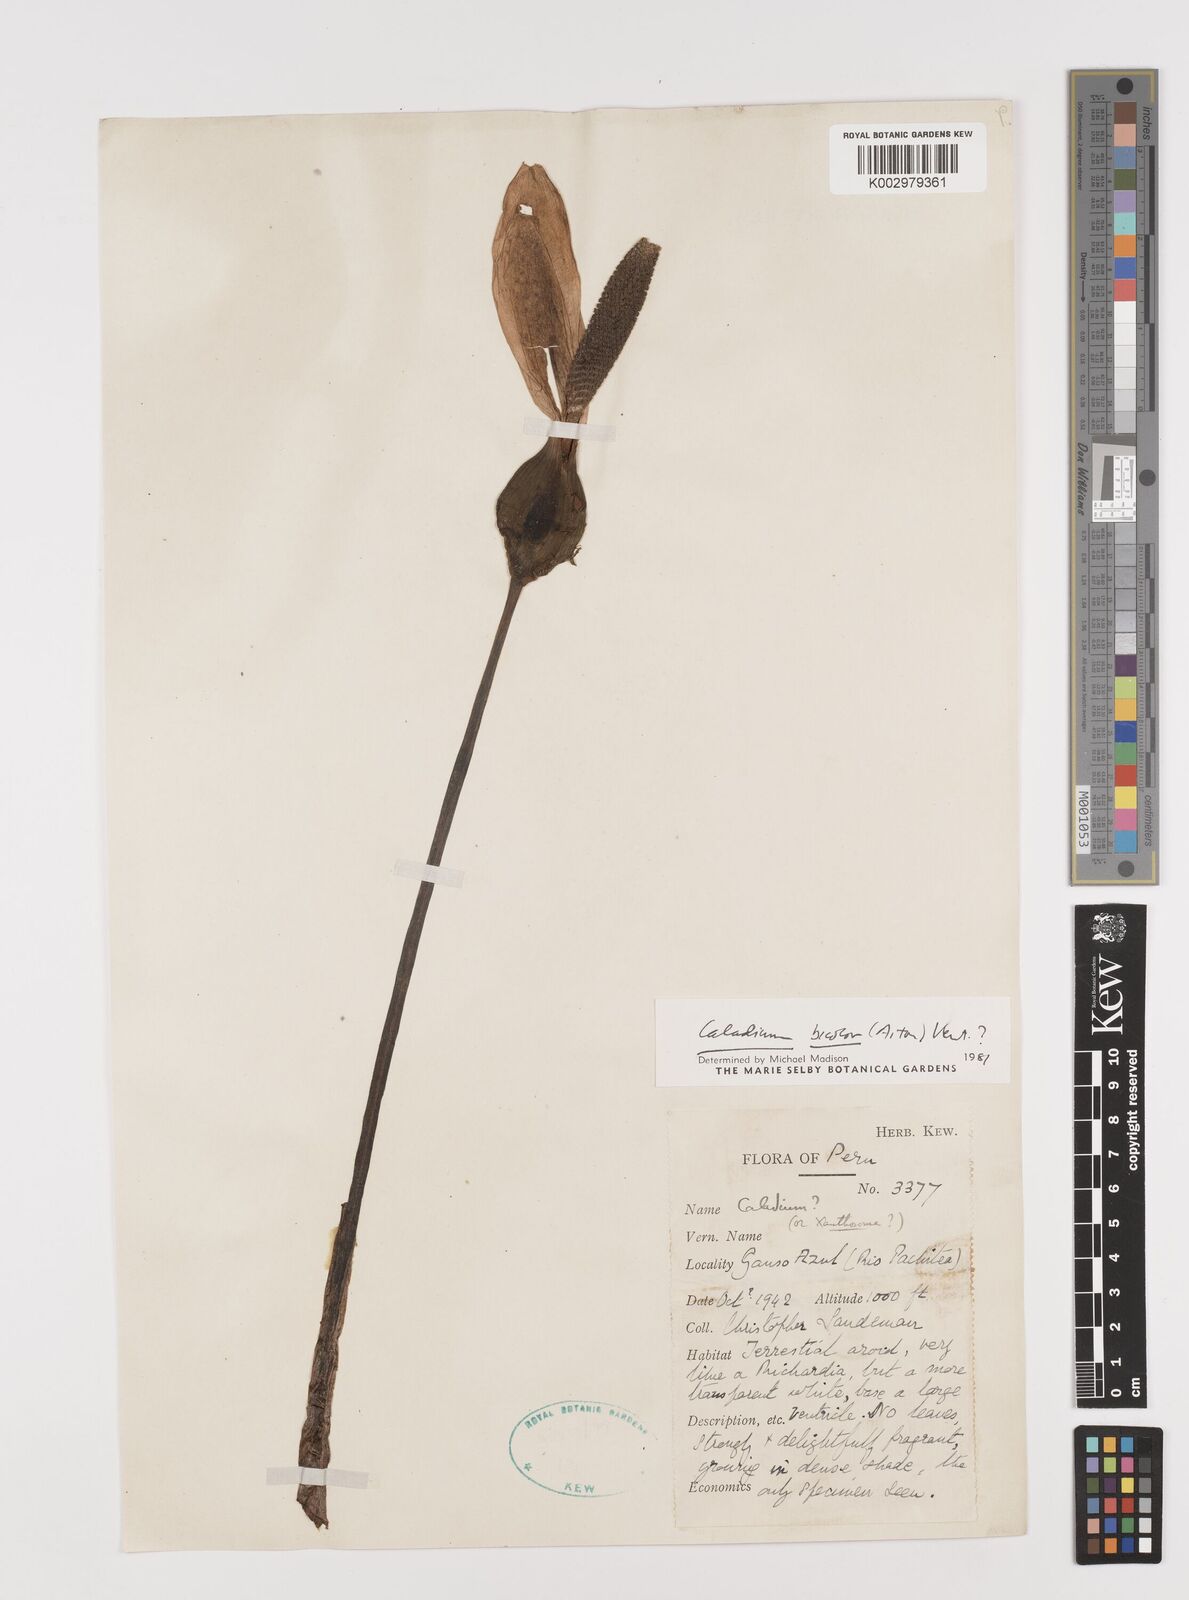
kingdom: Plantae
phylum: Tracheophyta
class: Liliopsida
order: Alismatales
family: Araceae
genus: Caladium
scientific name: Caladium bicolor
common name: Artist's pallet
